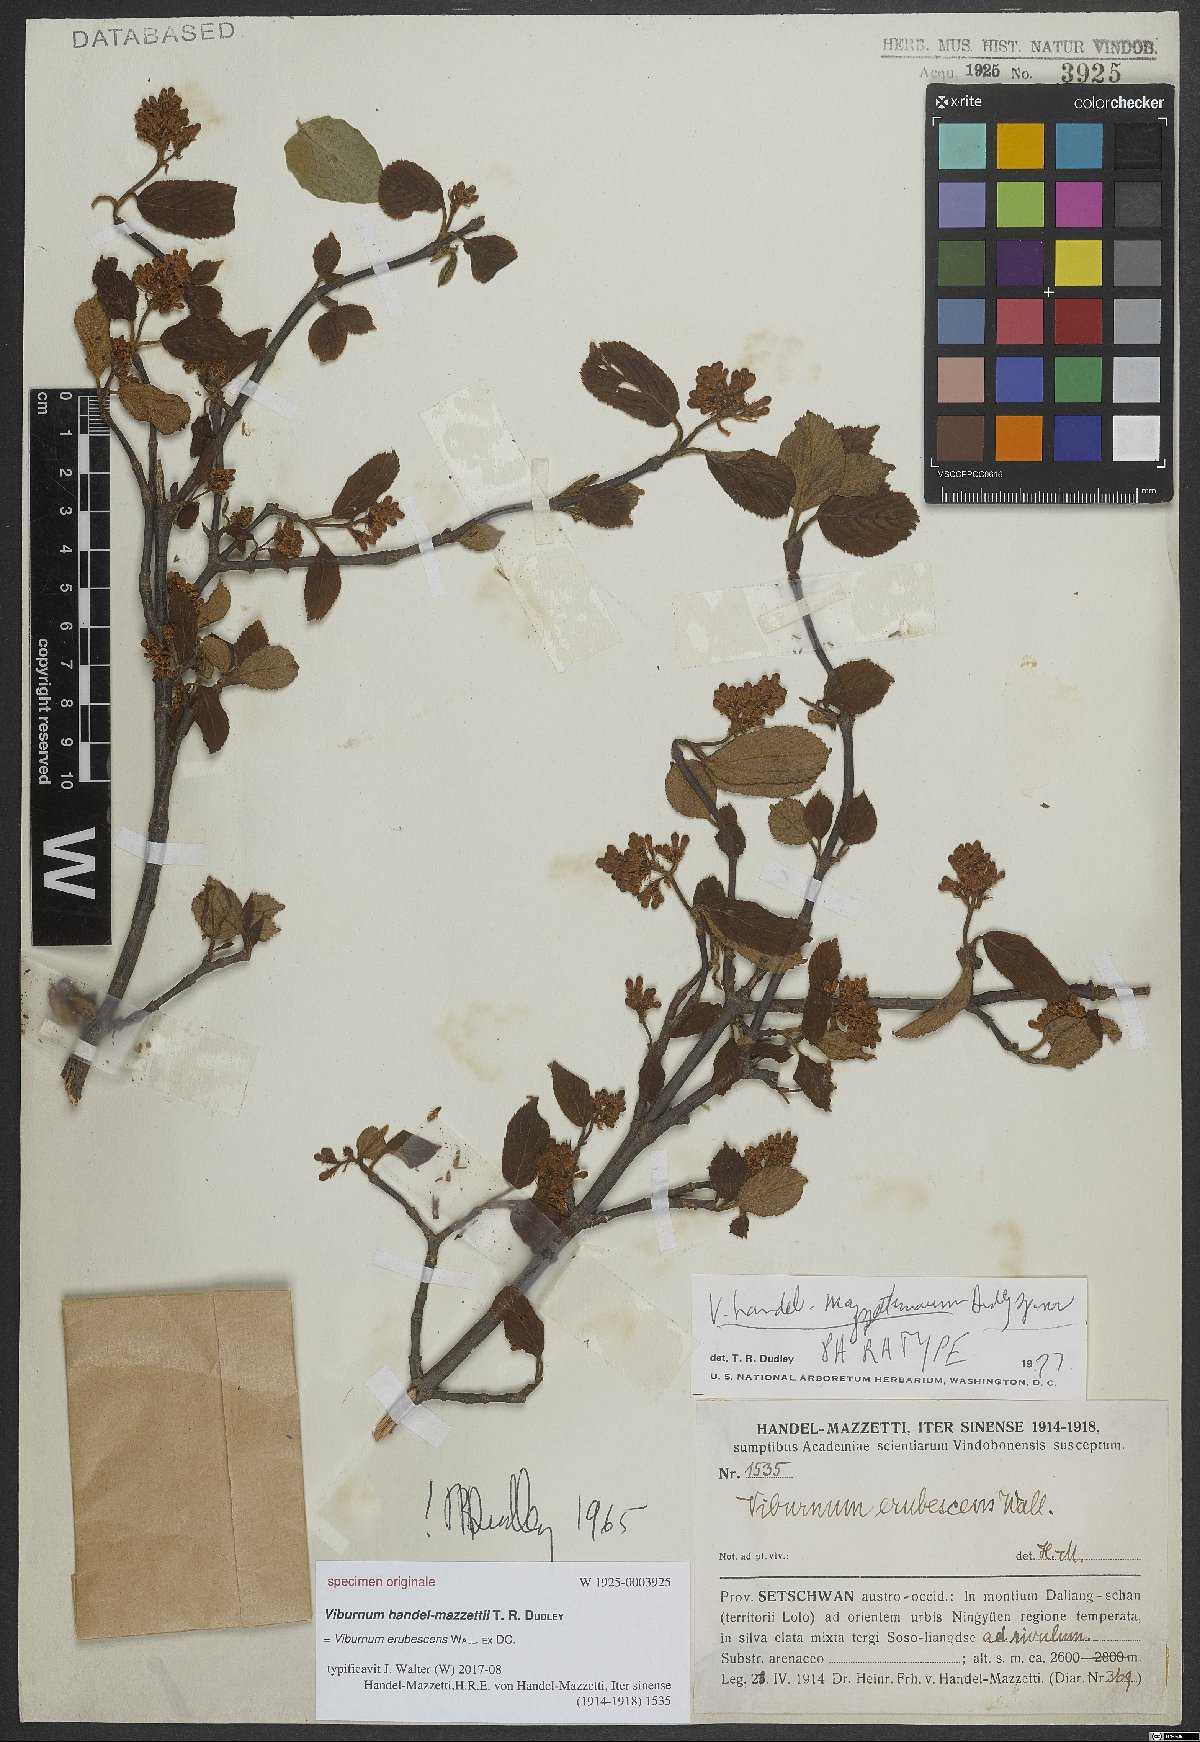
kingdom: Plantae
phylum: Tracheophyta
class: Magnoliopsida
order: Dipsacales
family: Viburnaceae
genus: Viburnum
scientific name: Viburnum erubescens
